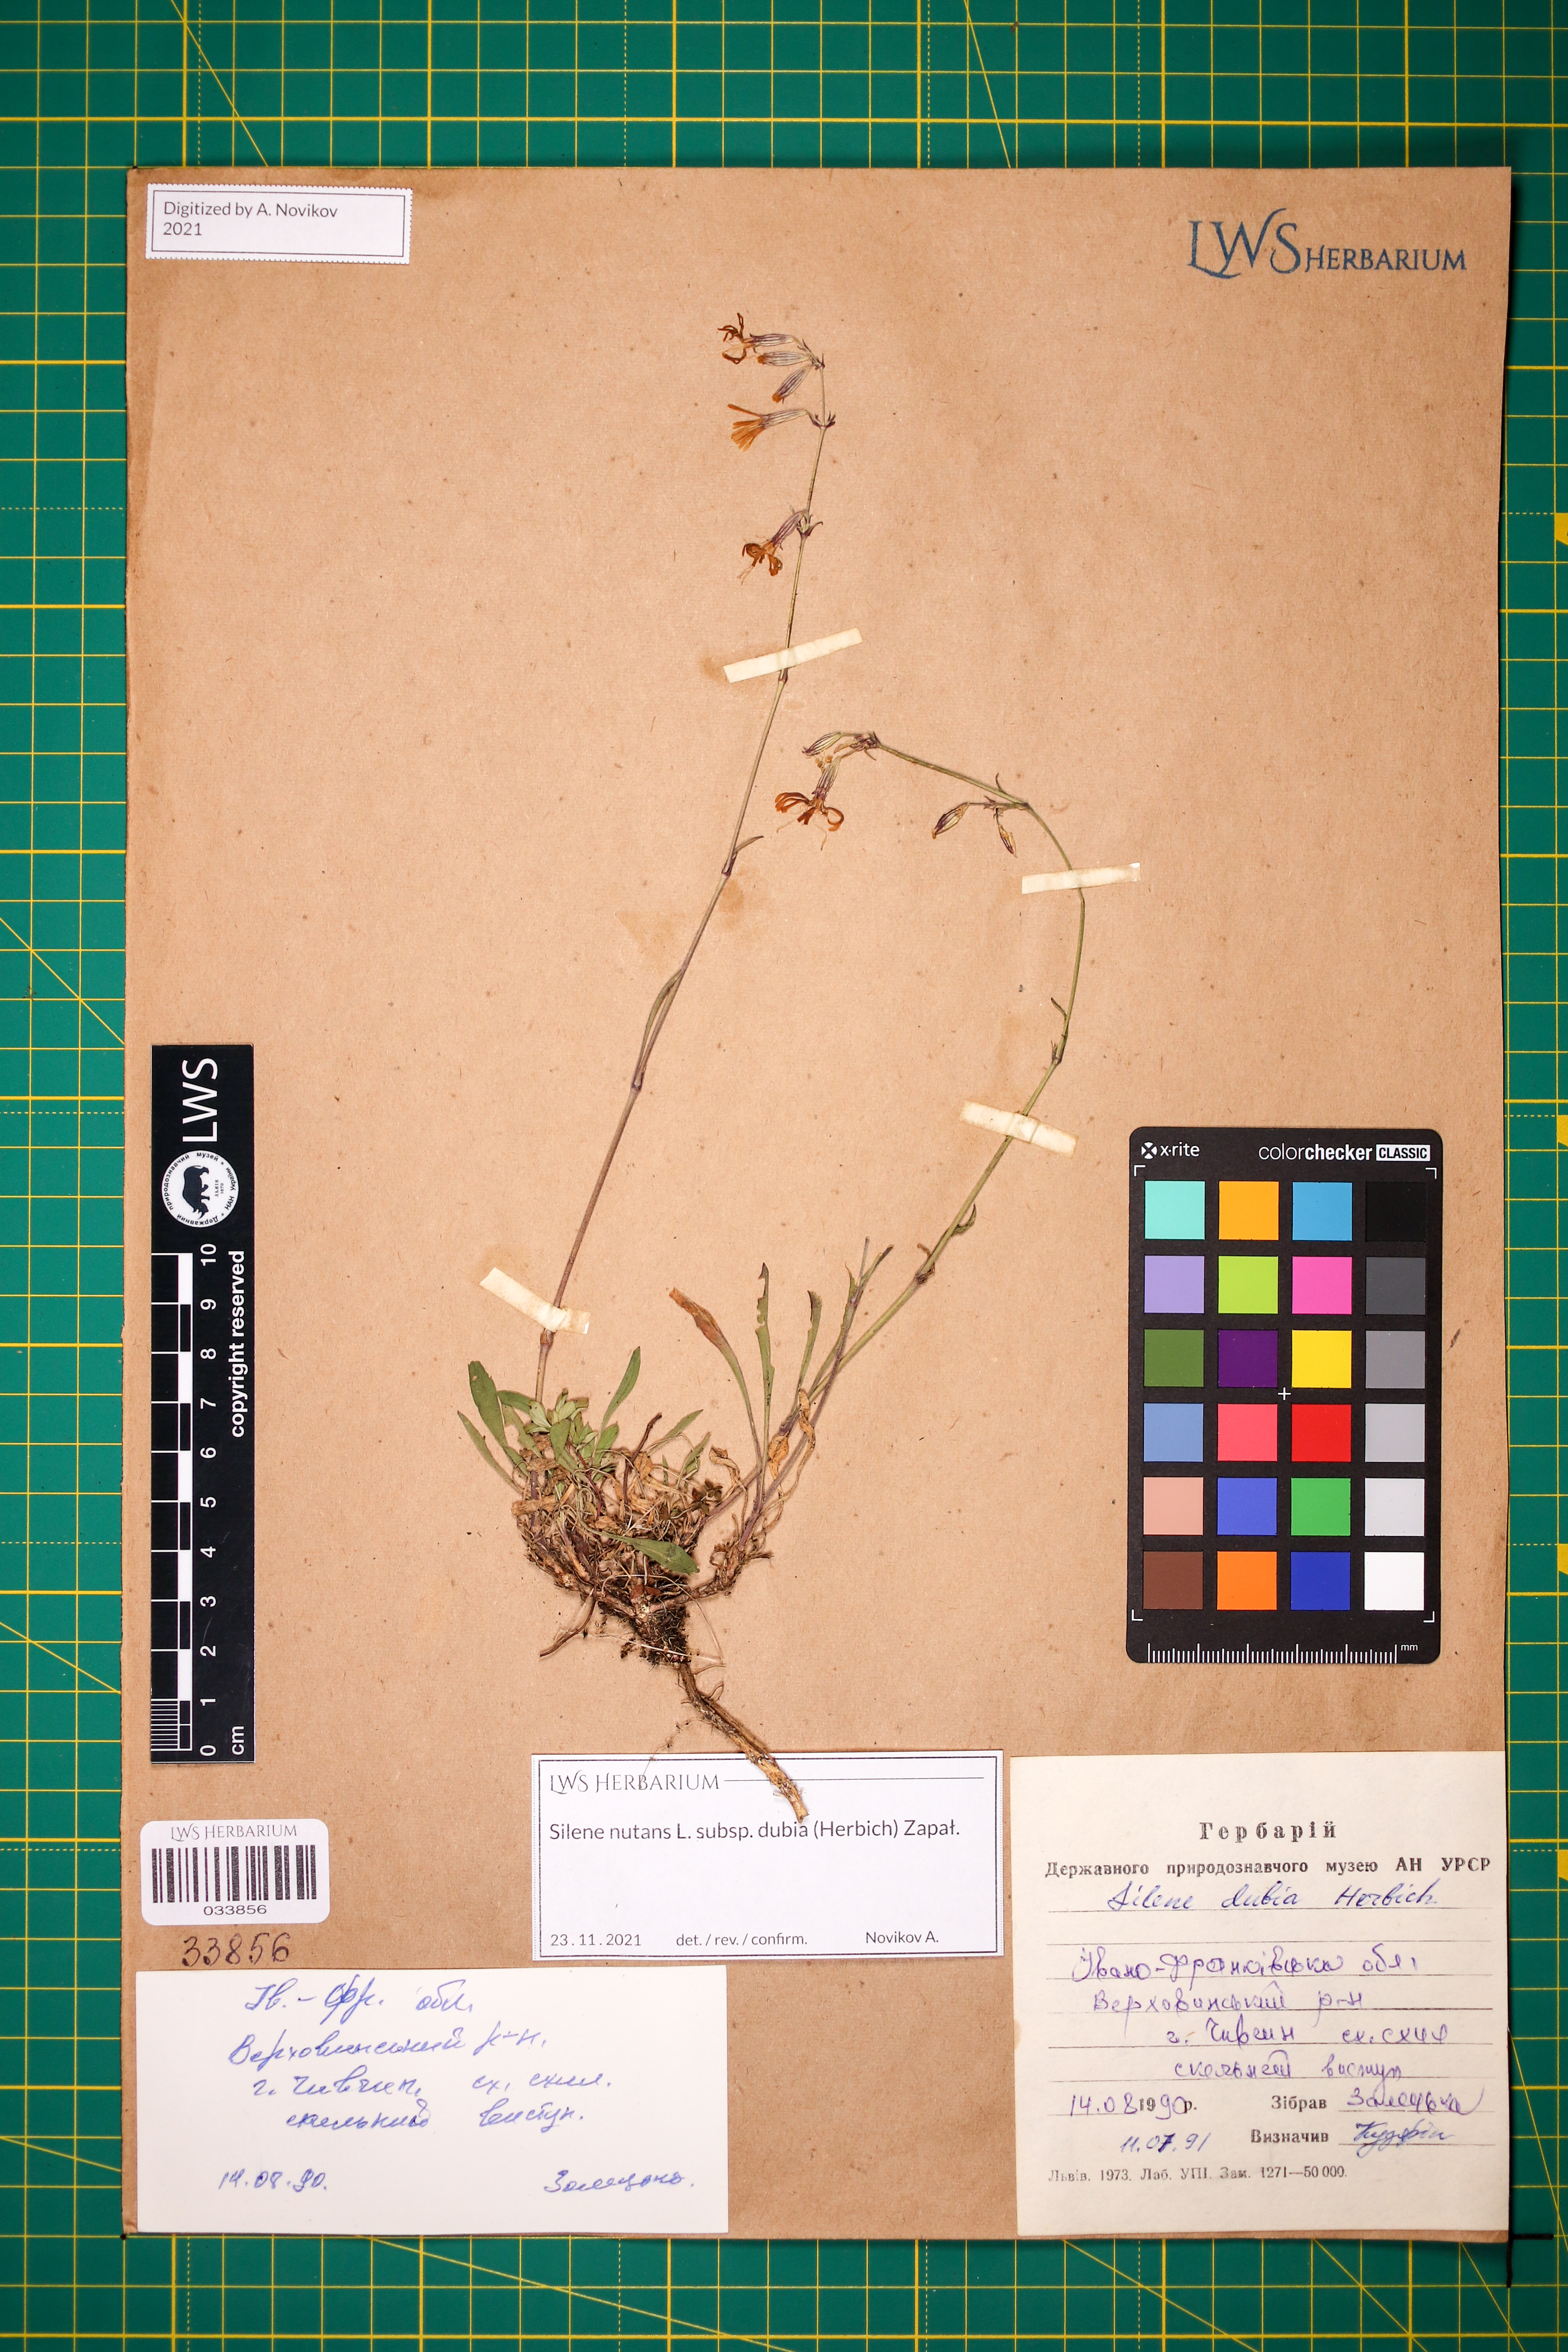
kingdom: Plantae
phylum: Tracheophyta
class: Magnoliopsida
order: Caryophyllales
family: Caryophyllaceae
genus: Silene
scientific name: Silene nutans
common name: Nottingham catchfly
